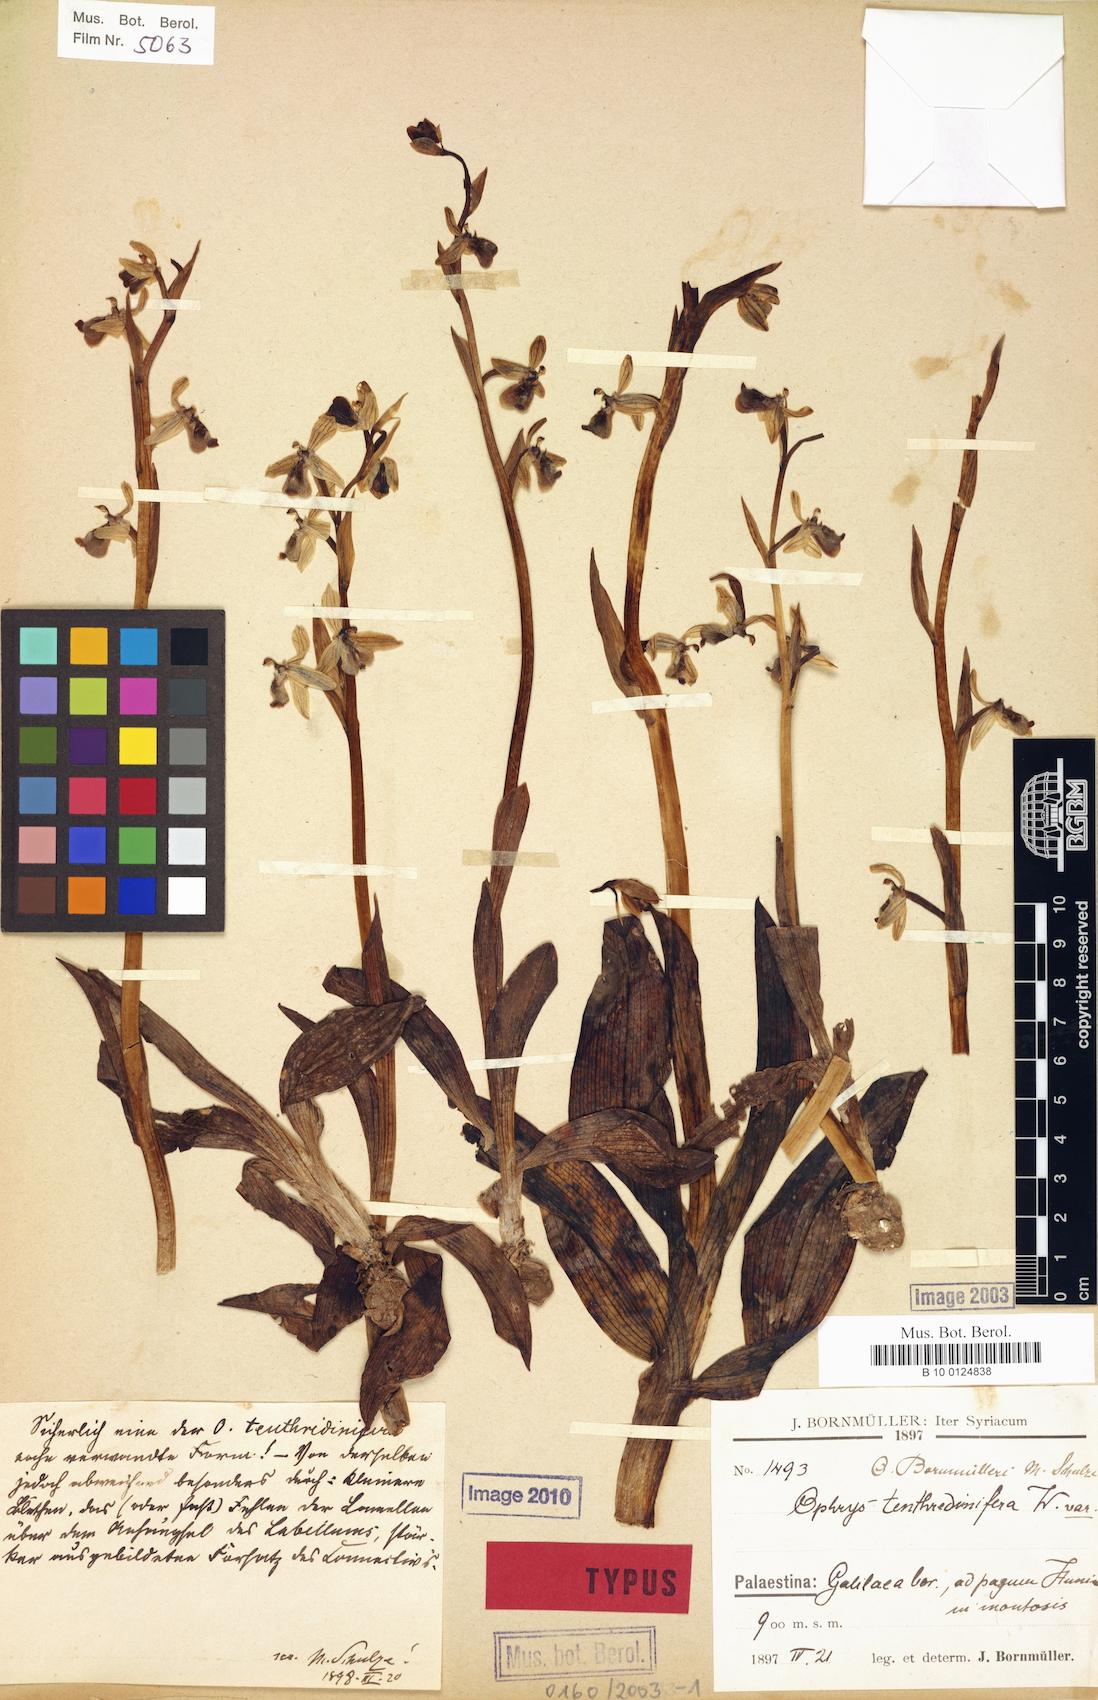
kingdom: Plantae
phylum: Tracheophyta
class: Liliopsida
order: Asparagales
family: Orchidaceae
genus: Ophrys
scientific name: Ophrys bornmuelleri
